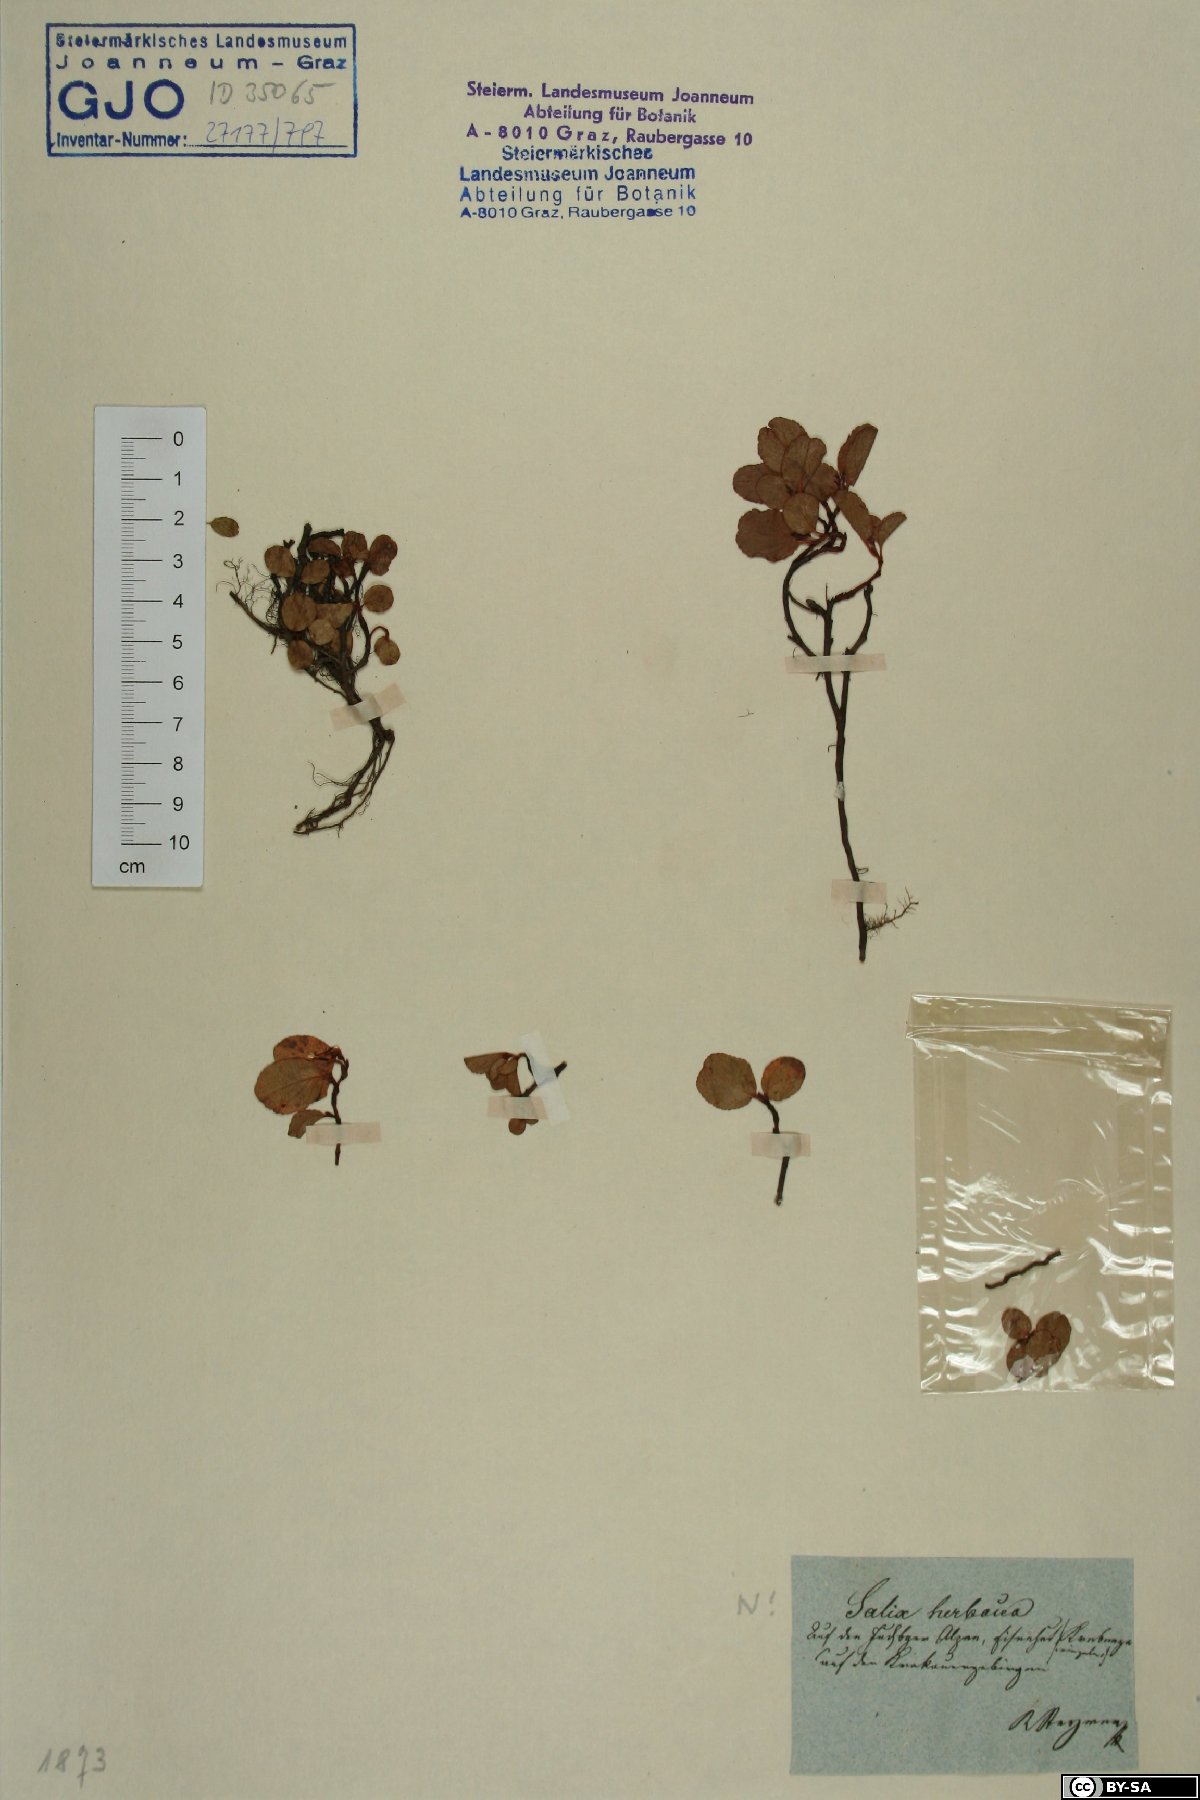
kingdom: Plantae
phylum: Tracheophyta
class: Magnoliopsida
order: Malpighiales
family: Salicaceae
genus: Salix
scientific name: Salix herbacea
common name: Dwarf willow
